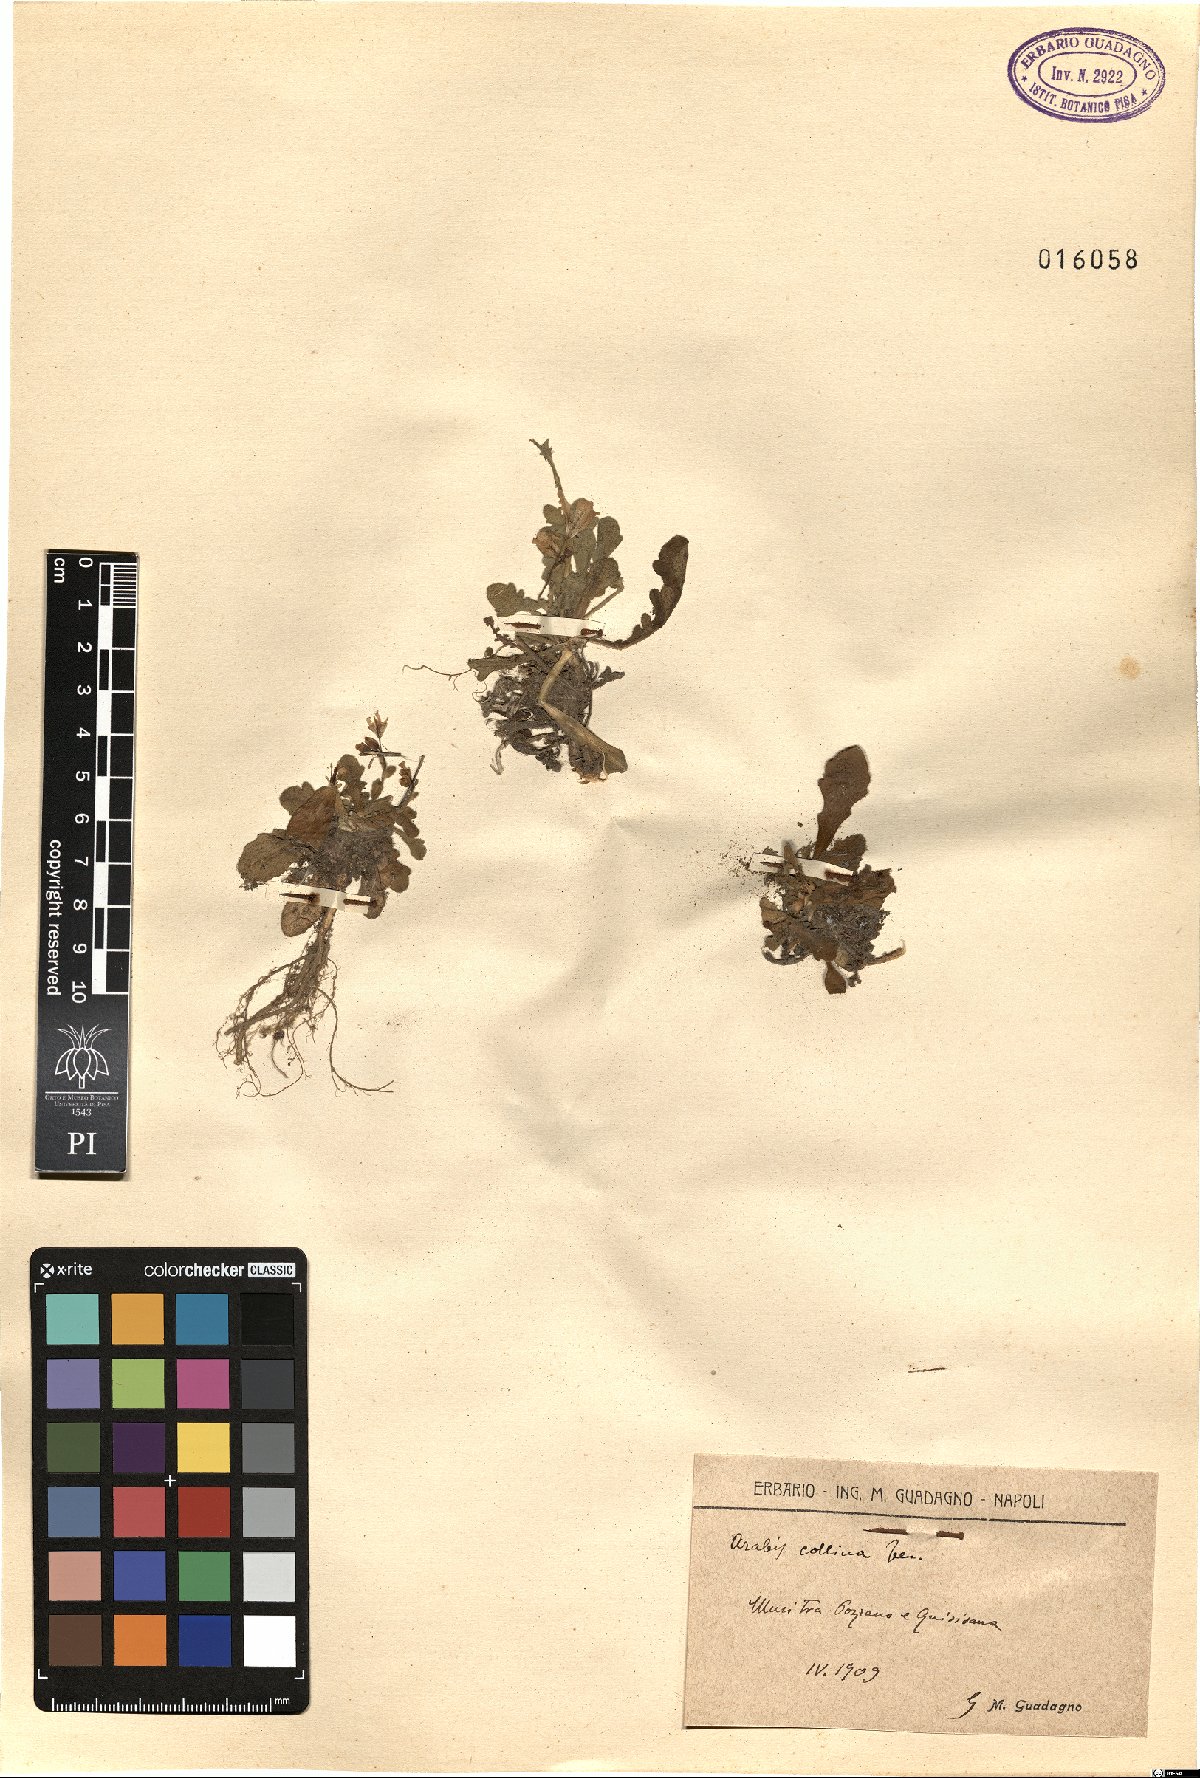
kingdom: Plantae
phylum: Tracheophyta
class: Magnoliopsida
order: Brassicales
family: Brassicaceae
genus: Arabis
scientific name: Arabis collina
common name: Rosy cress
